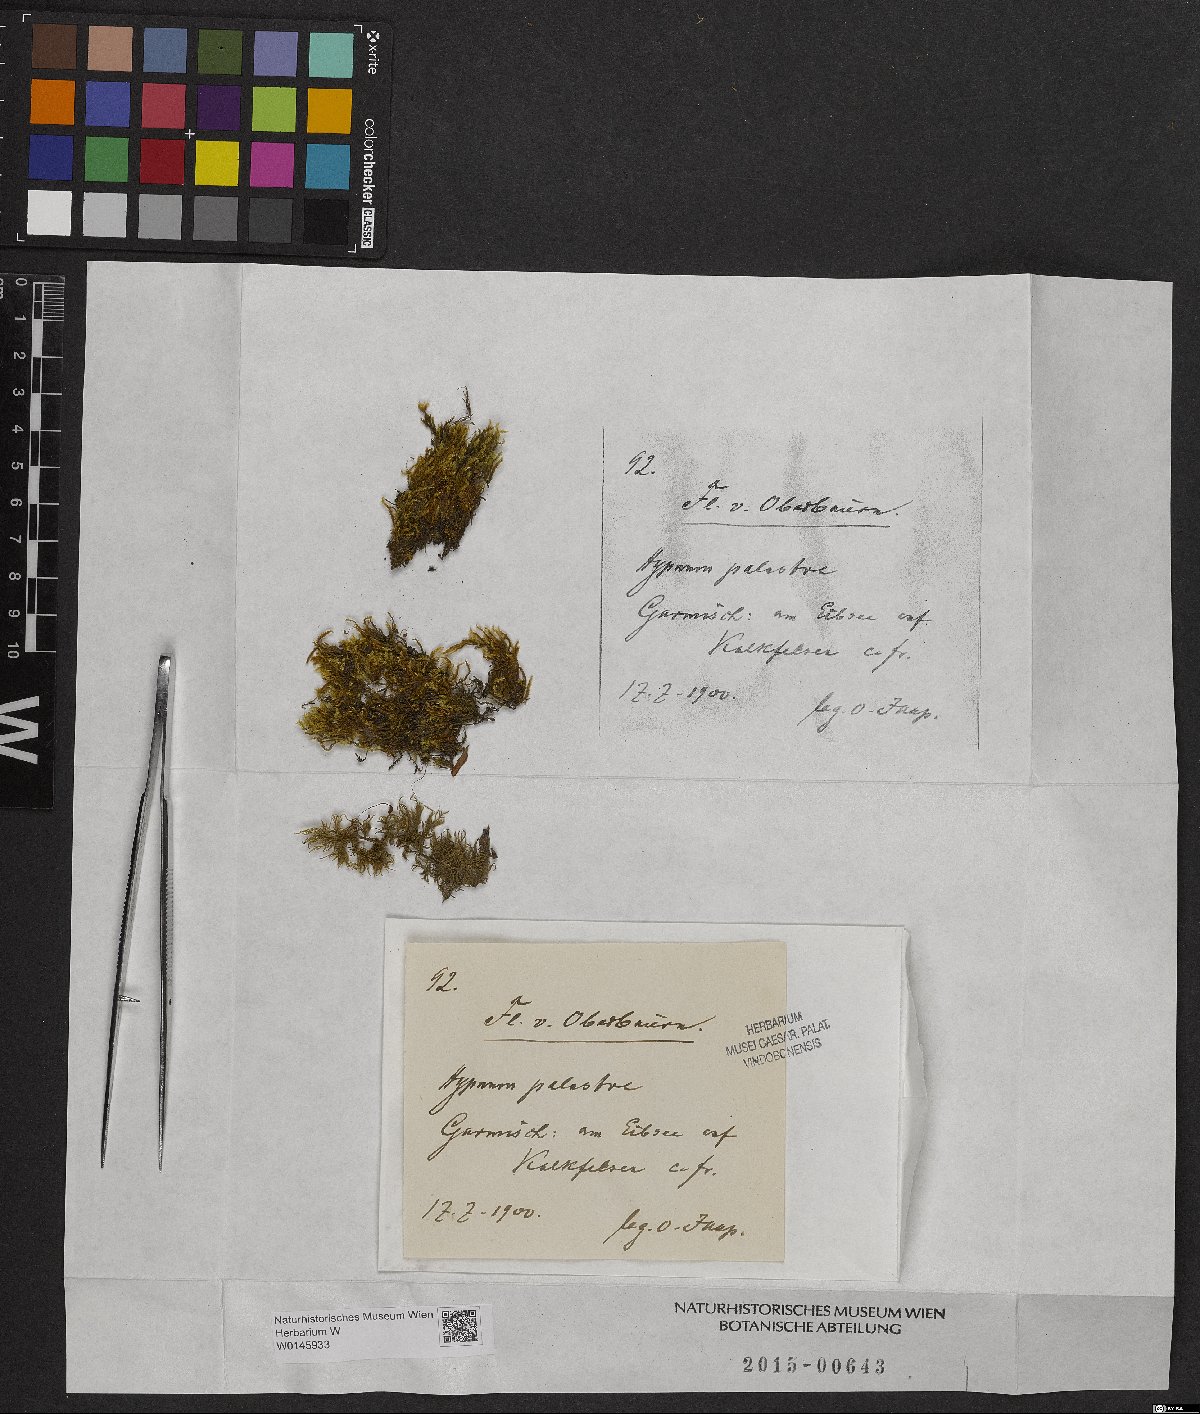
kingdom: Plantae
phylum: Bryophyta
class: Bryopsida
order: Hypnales
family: Amblystegiaceae
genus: Hygrohypnum
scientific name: Hygrohypnum luridum
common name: Drab brook moss
